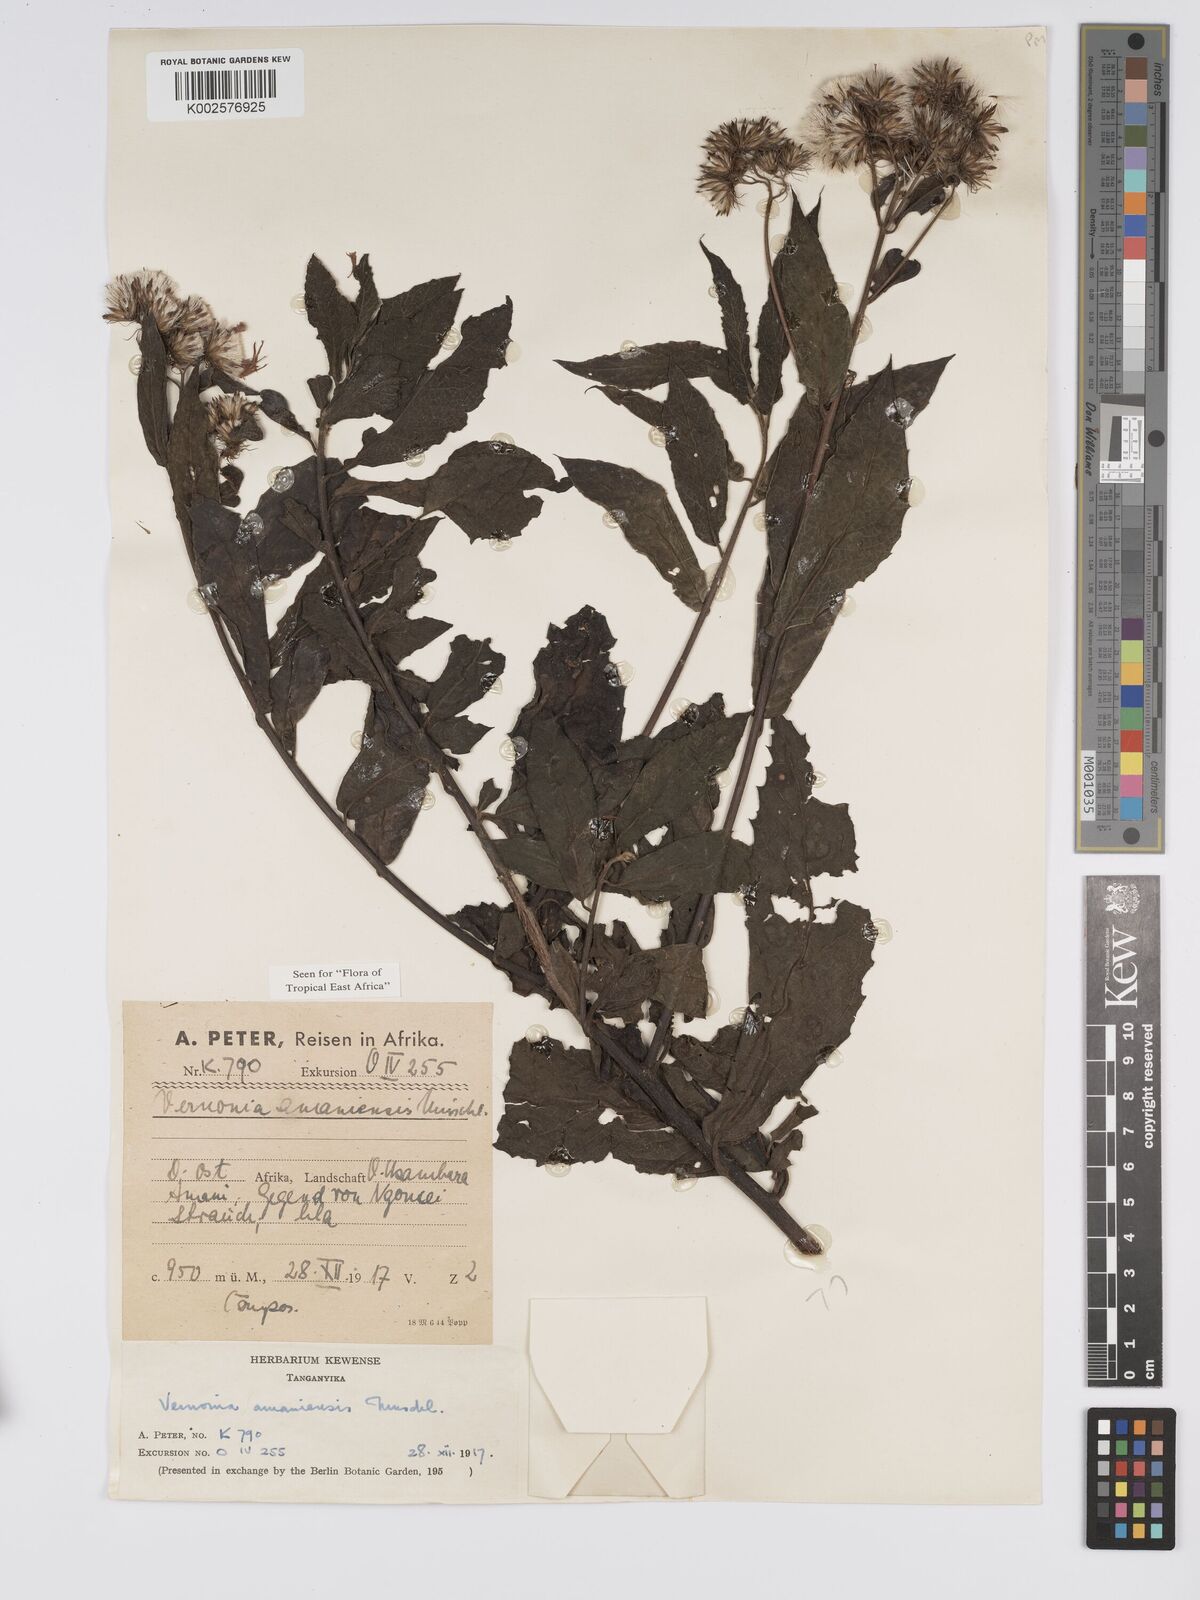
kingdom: Plantae
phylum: Tracheophyta
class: Magnoliopsida
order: Asterales
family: Asteraceae
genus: Jeffreycia
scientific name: Jeffreycia amaniensis
